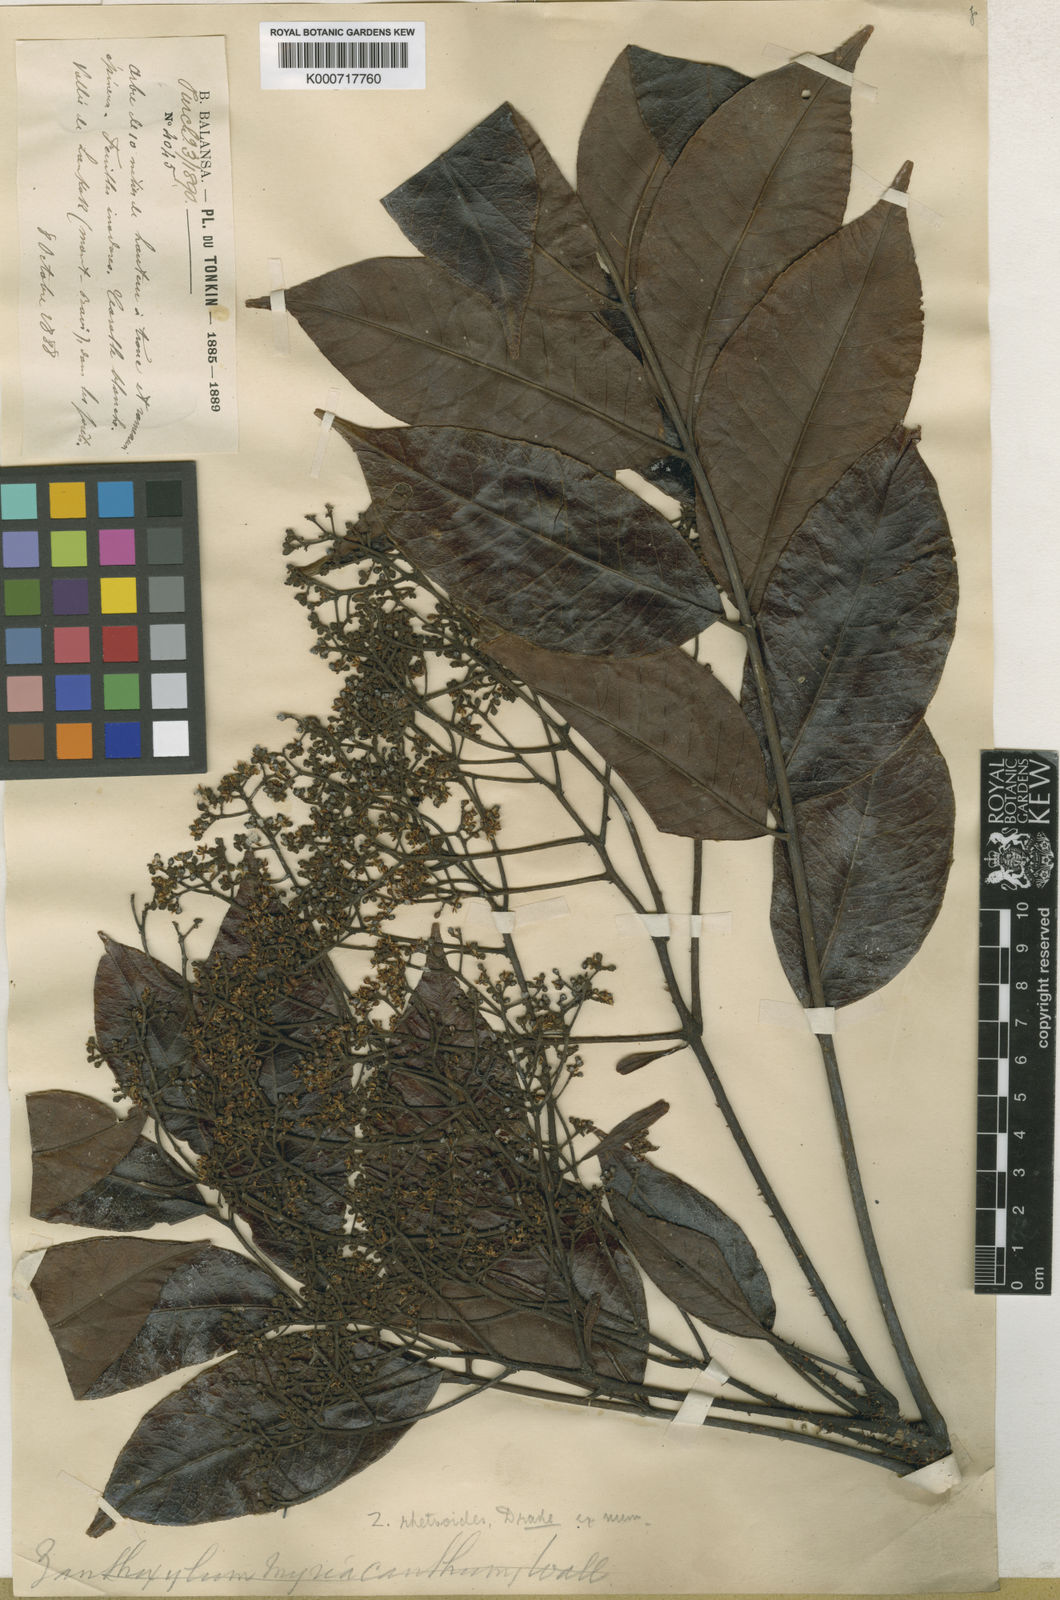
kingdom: Plantae
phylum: Tracheophyta
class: Magnoliopsida
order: Sapindales
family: Rutaceae
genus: Zanthoxylum
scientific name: Zanthoxylum myriacanthum
